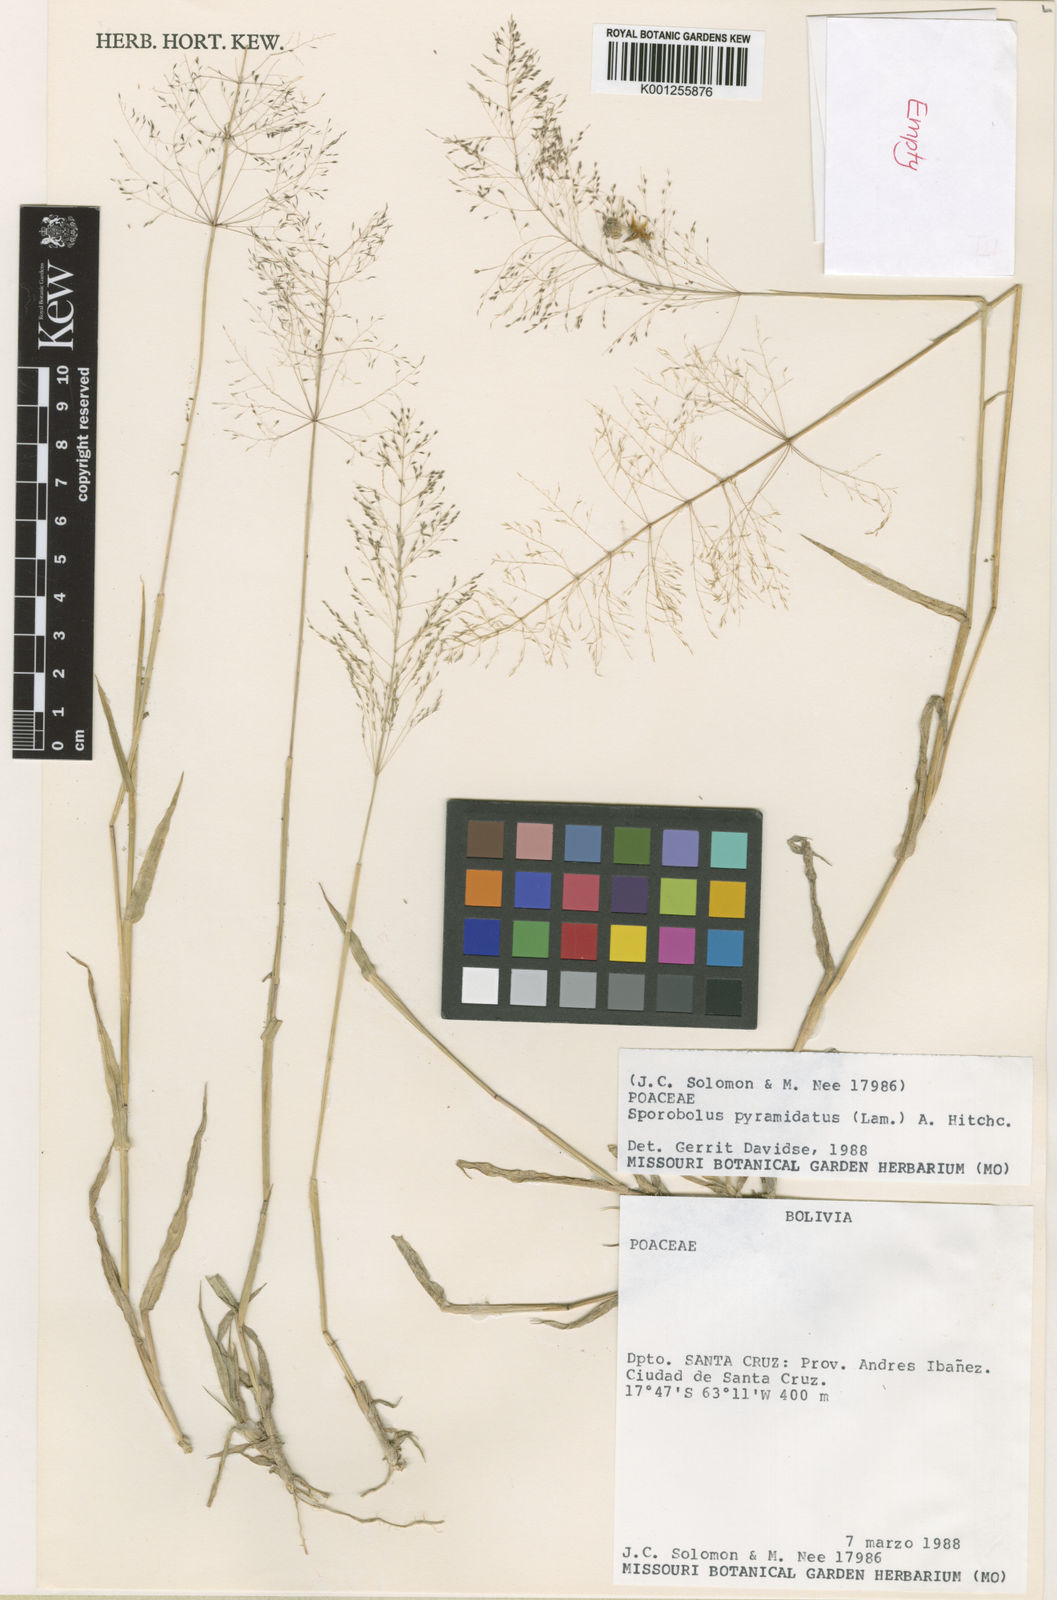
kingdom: Plantae
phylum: Tracheophyta
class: Liliopsida
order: Poales
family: Poaceae
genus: Sporobolus
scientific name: Sporobolus pyramidatus
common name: Whorled dropseed
